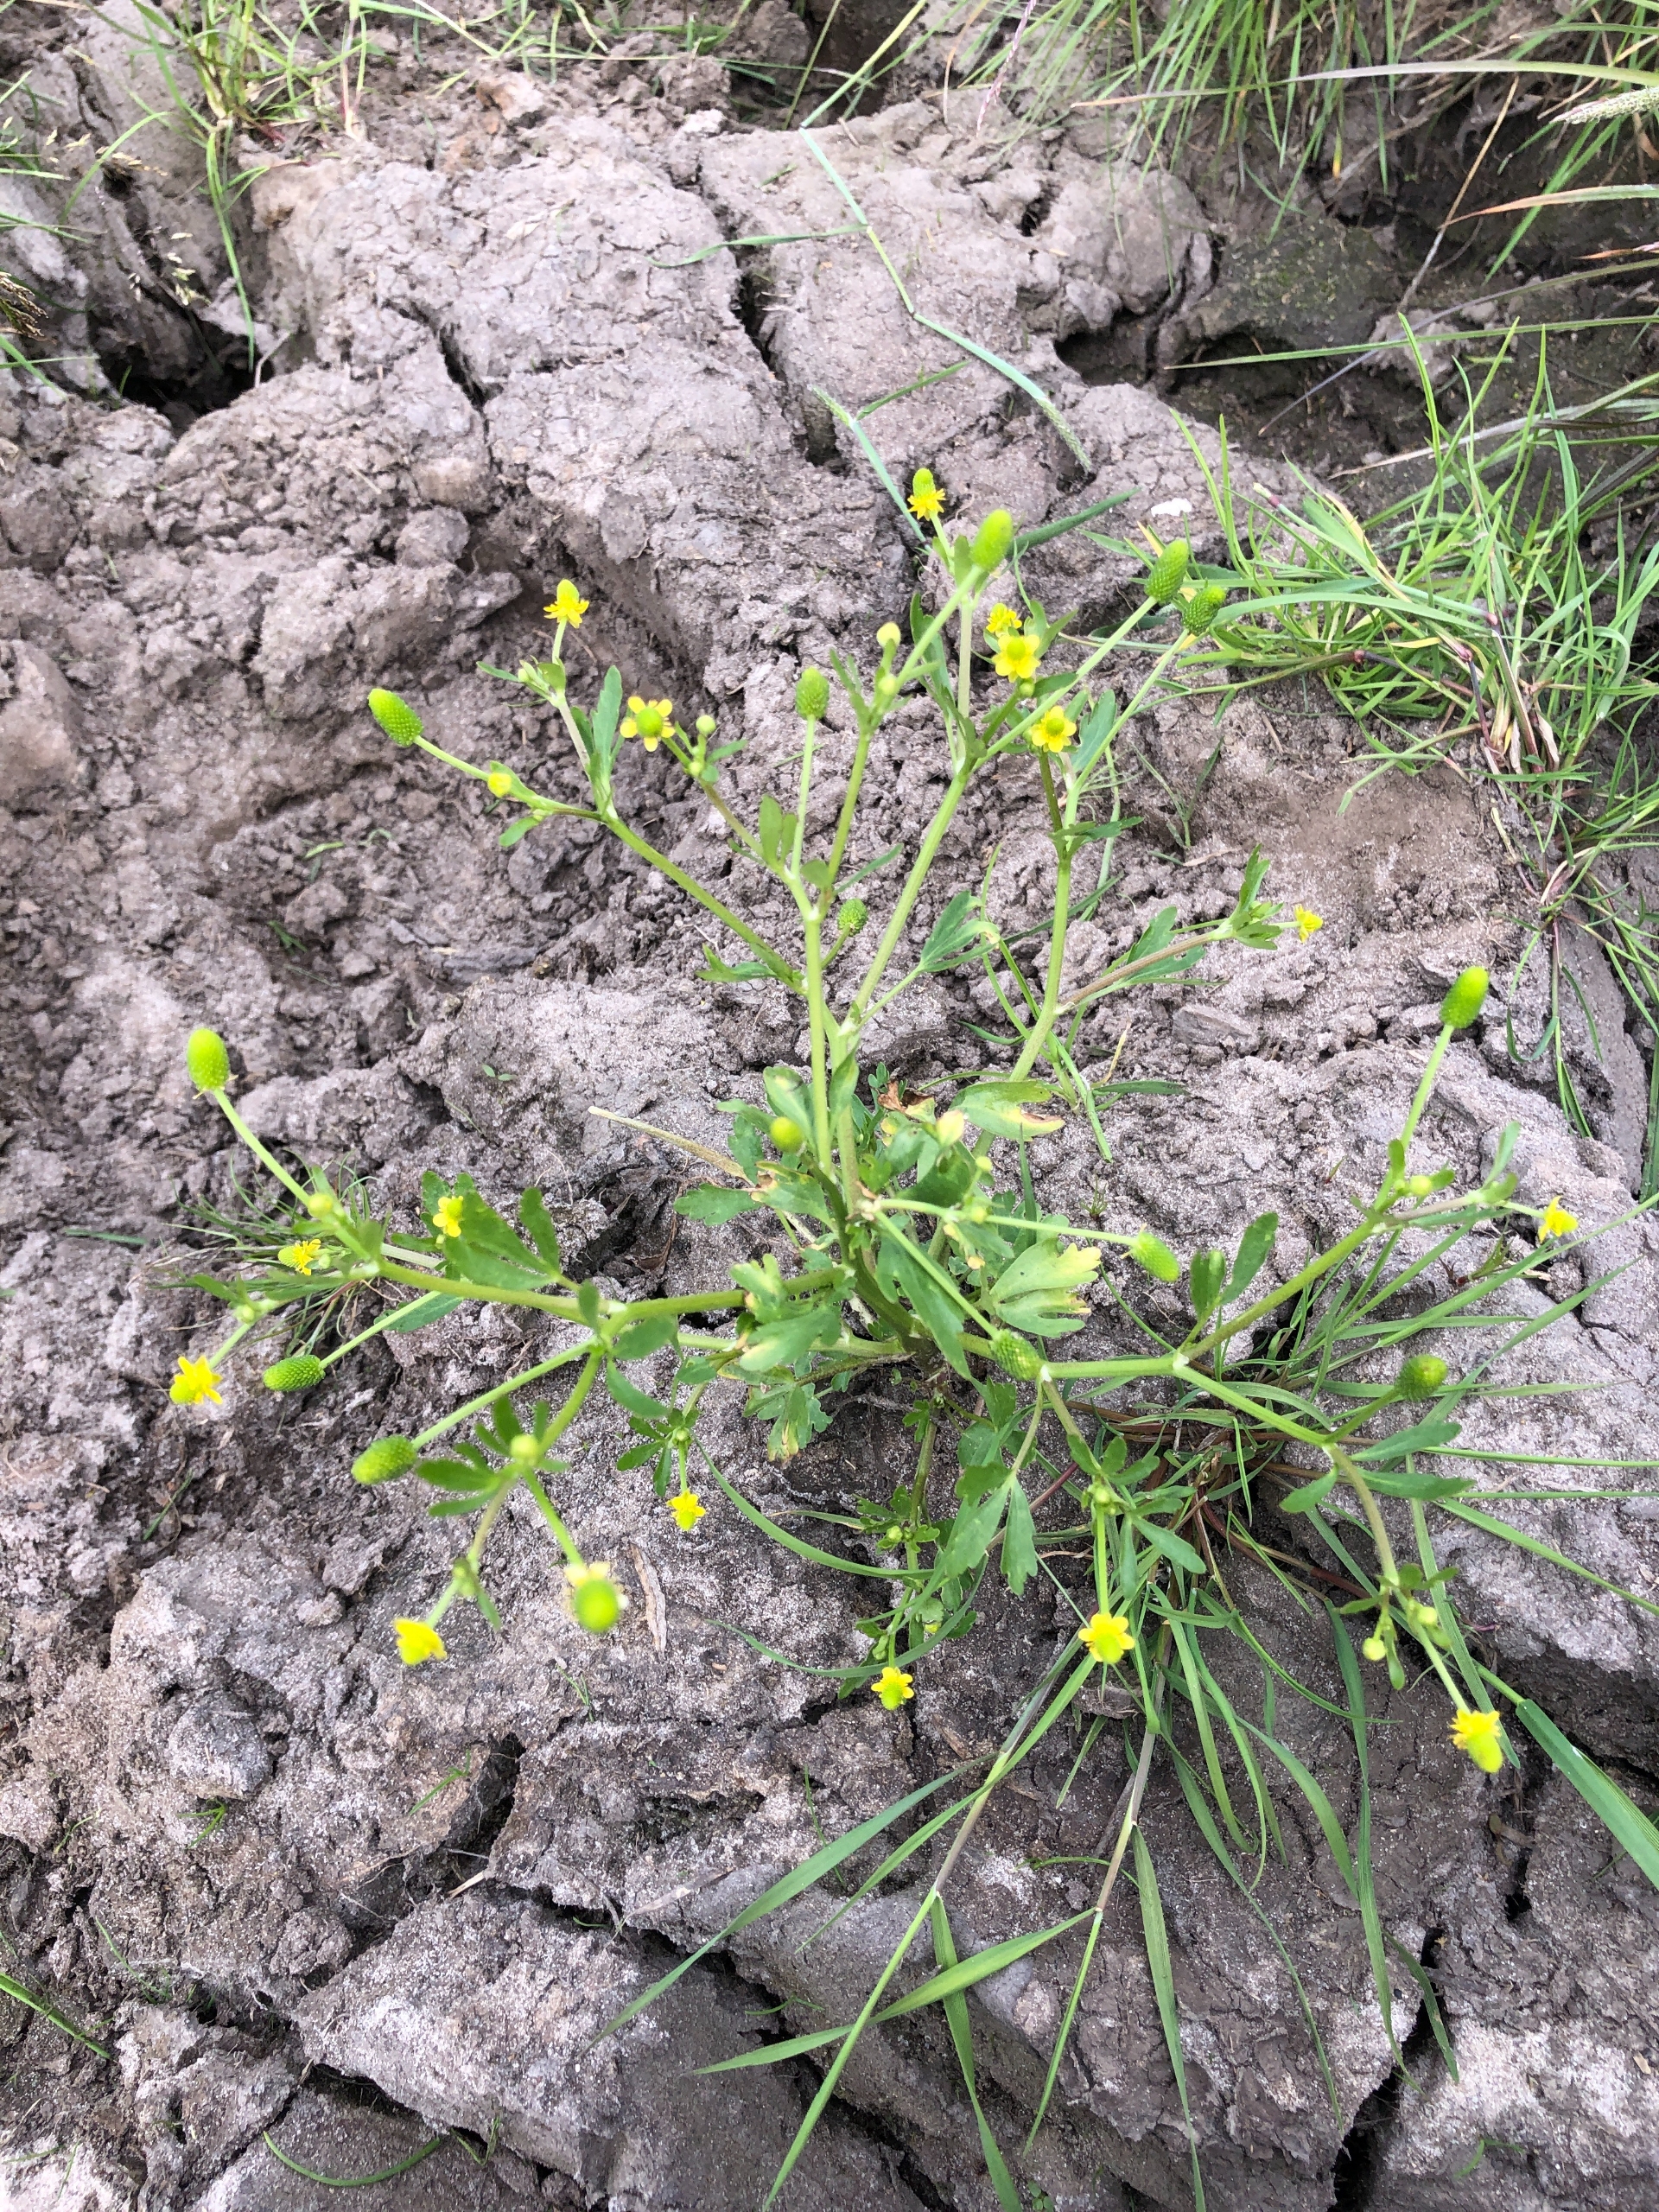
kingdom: Plantae
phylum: Tracheophyta
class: Magnoliopsida
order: Ranunculales
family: Ranunculaceae
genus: Ranunculus
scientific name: Ranunculus sceleratus
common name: Tigger-ranunkel
